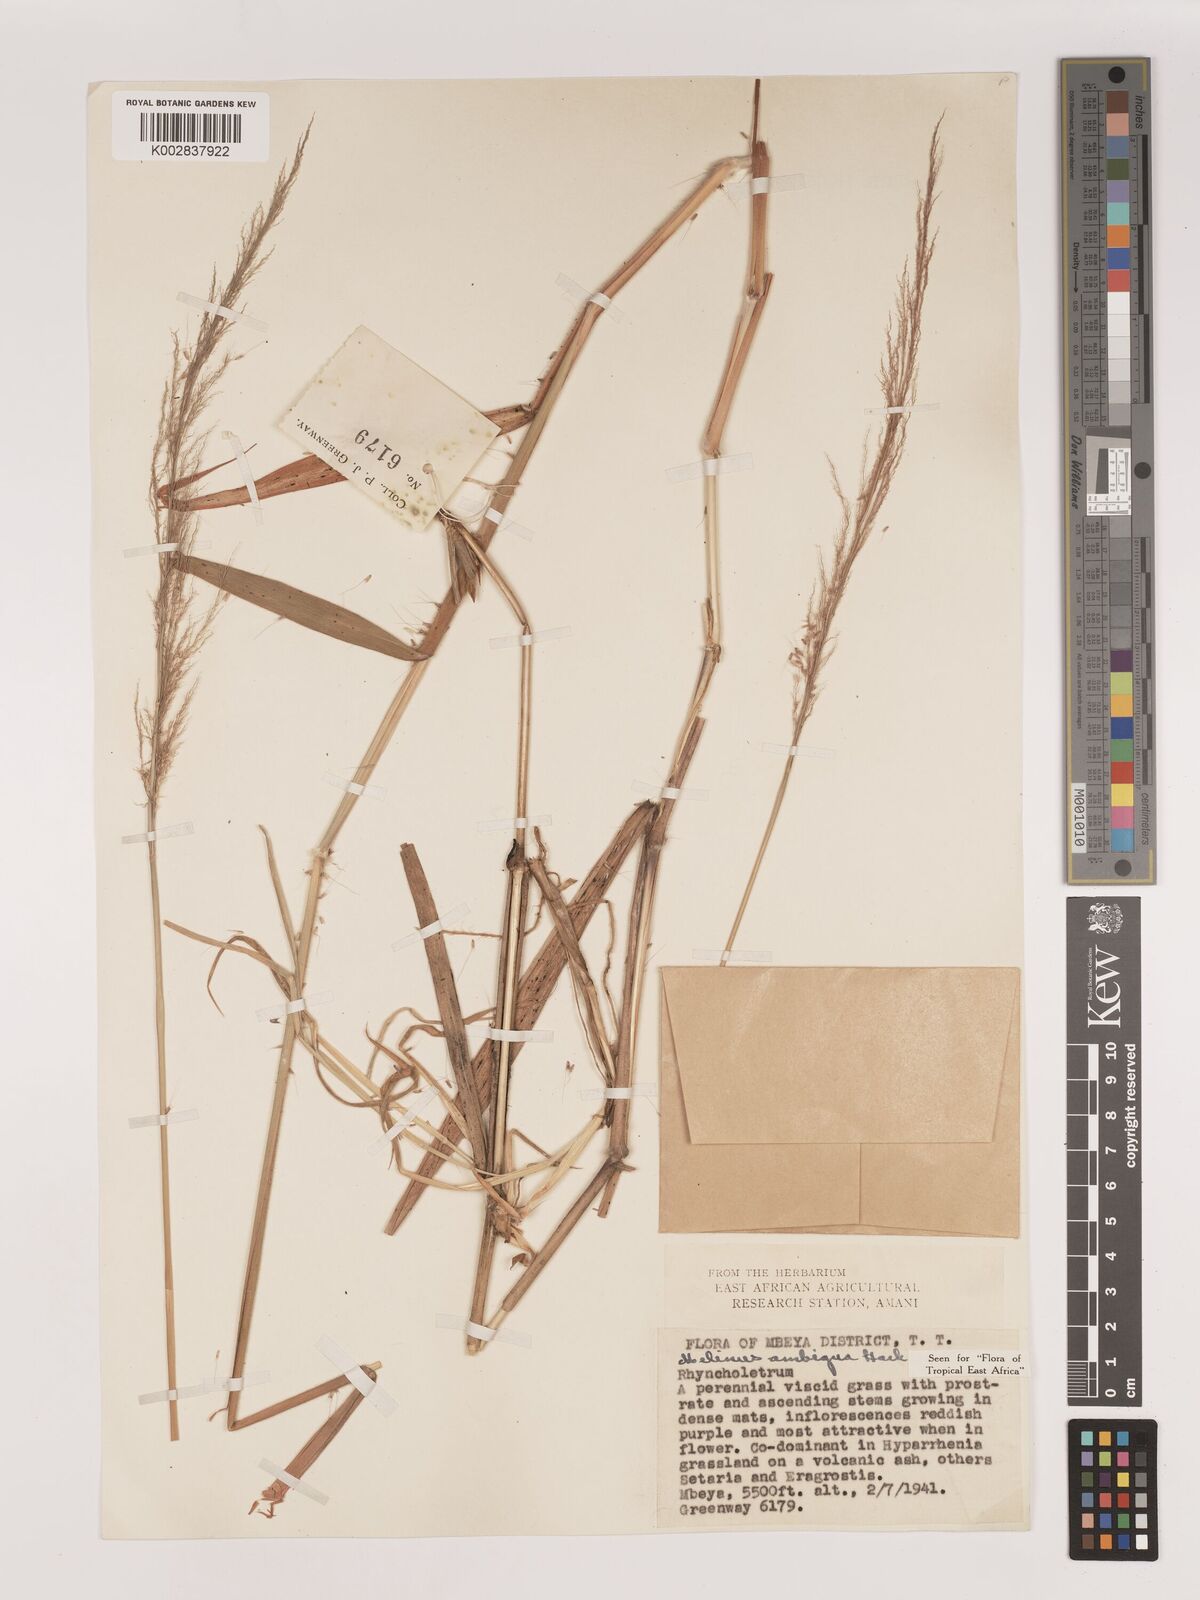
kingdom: Plantae
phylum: Tracheophyta
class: Liliopsida
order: Poales
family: Poaceae
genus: Melinis
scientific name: Melinis ambigua
